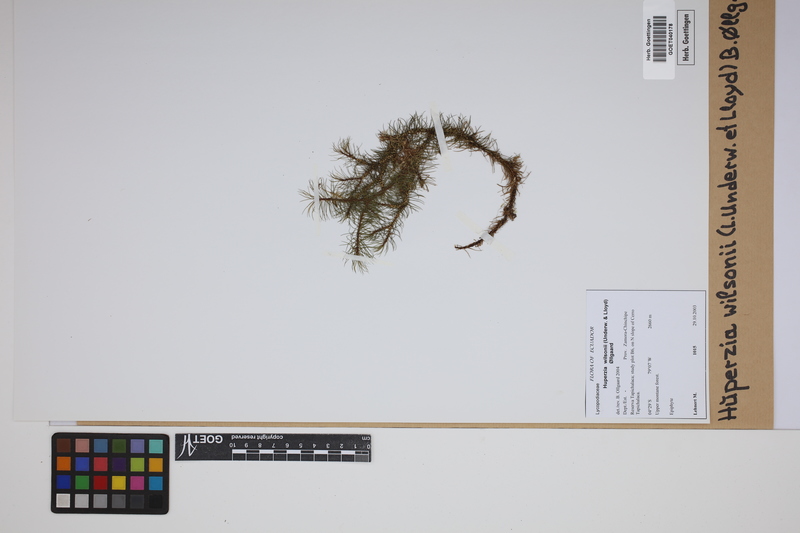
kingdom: Plantae
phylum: Tracheophyta
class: Lycopodiopsida
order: Lycopodiales
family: Lycopodiaceae
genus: Phlegmariurus
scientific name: Phlegmariurus wilsonii
